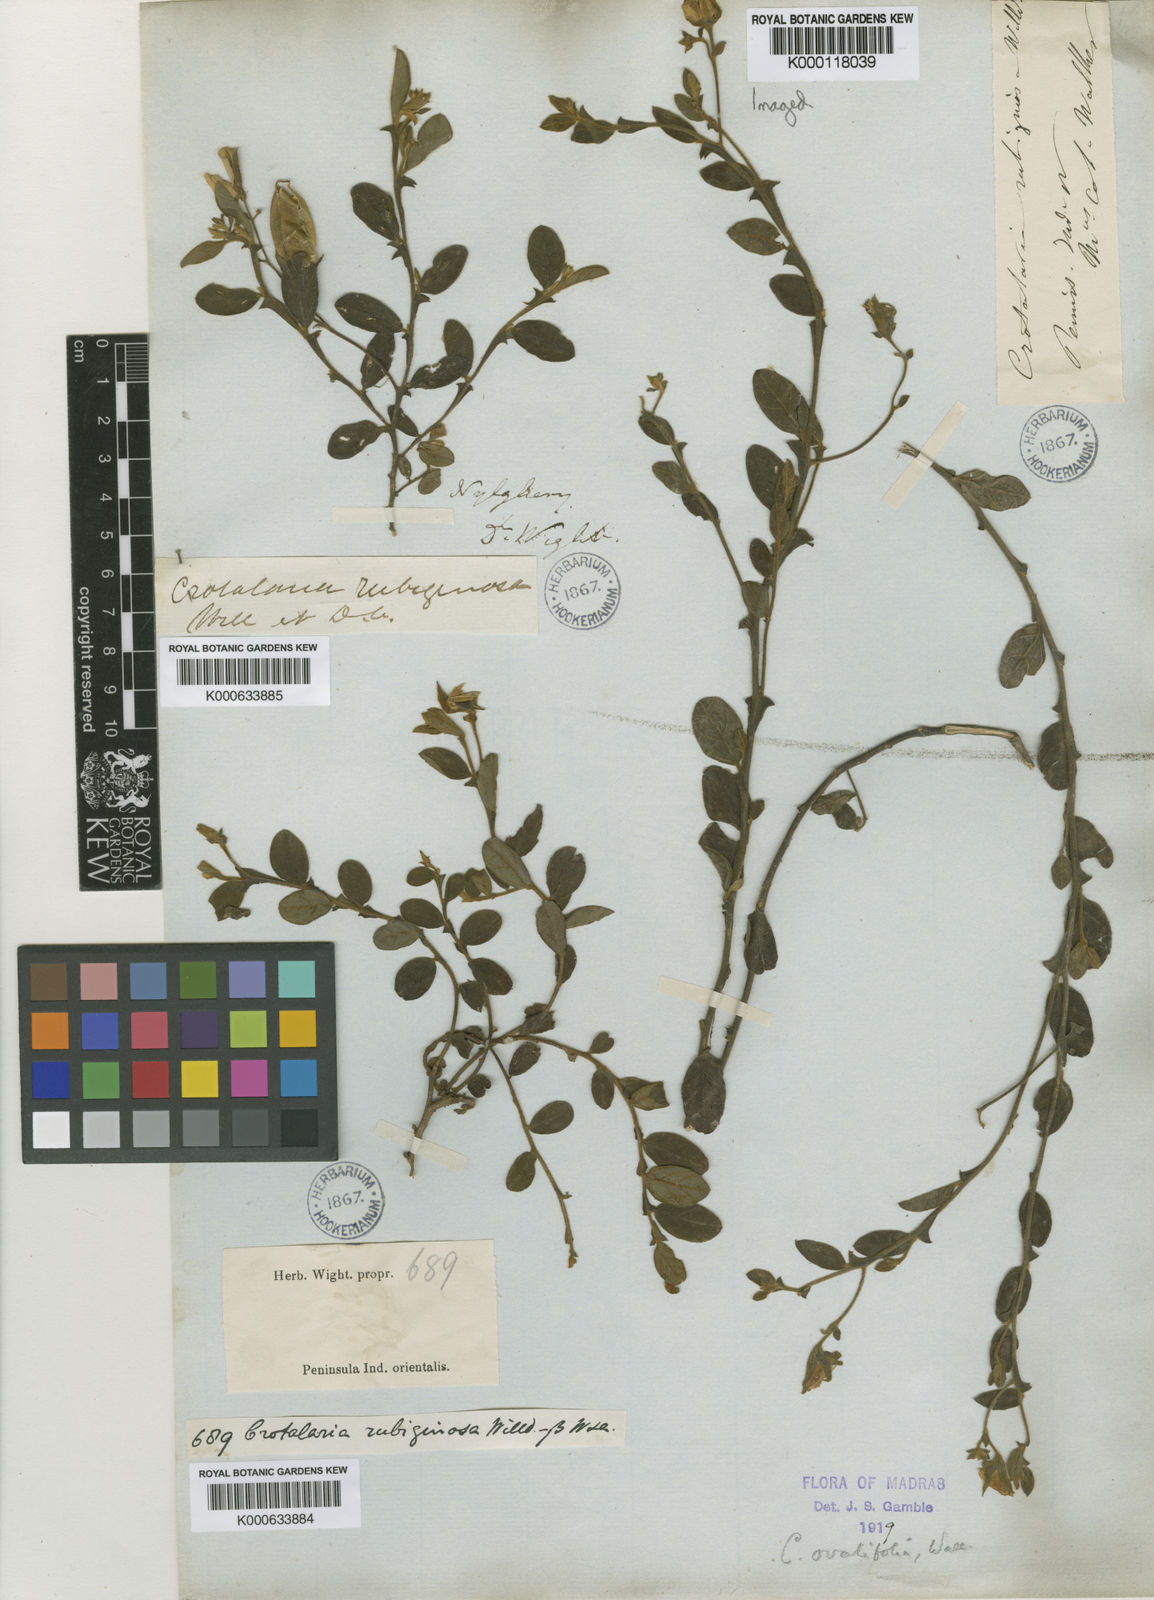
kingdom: Plantae
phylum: Tracheophyta
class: Magnoliopsida
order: Fabales
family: Fabaceae
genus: Crotalaria
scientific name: Crotalaria
